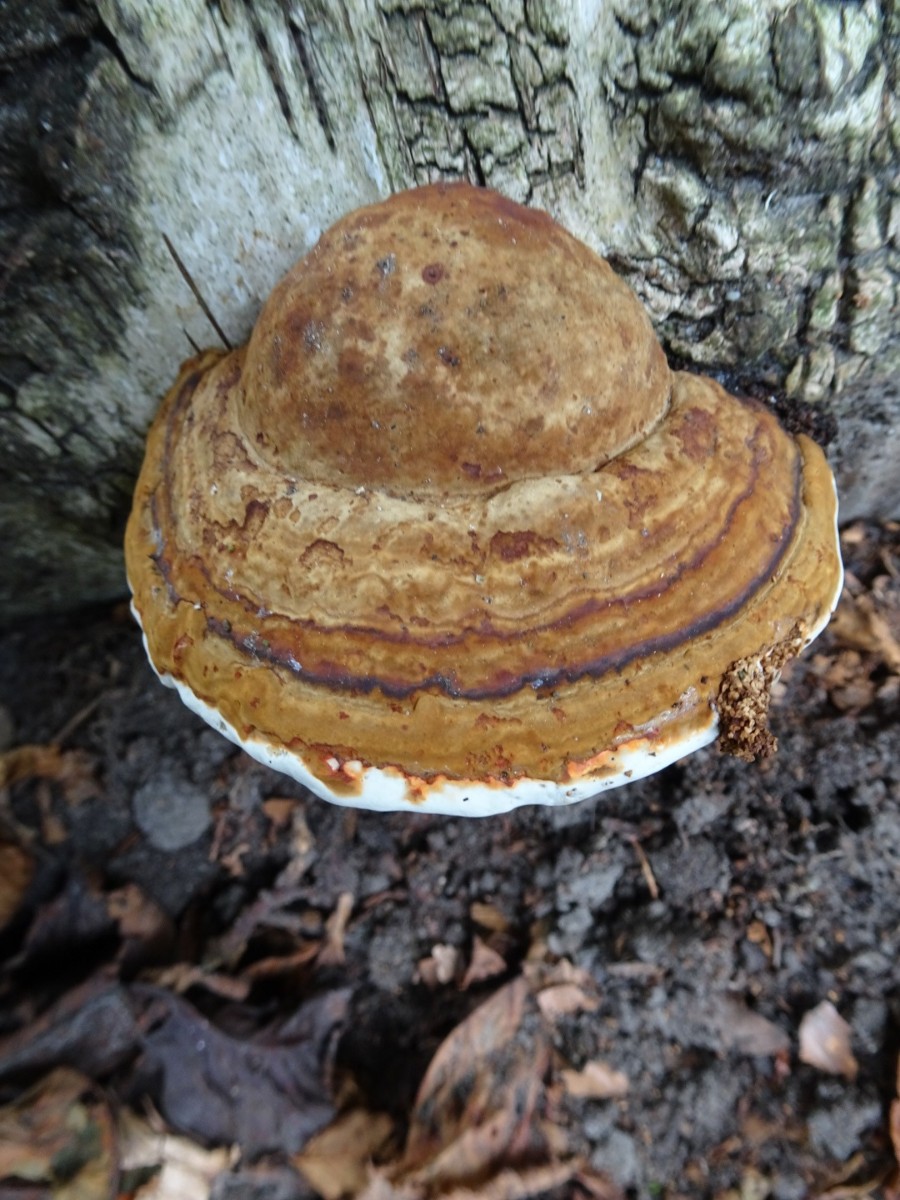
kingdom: Fungi
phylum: Basidiomycota
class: Agaricomycetes
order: Polyporales
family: Fomitopsidaceae
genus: Fomitopsis
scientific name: Fomitopsis pinicola
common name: randbæltet hovporesvamp
